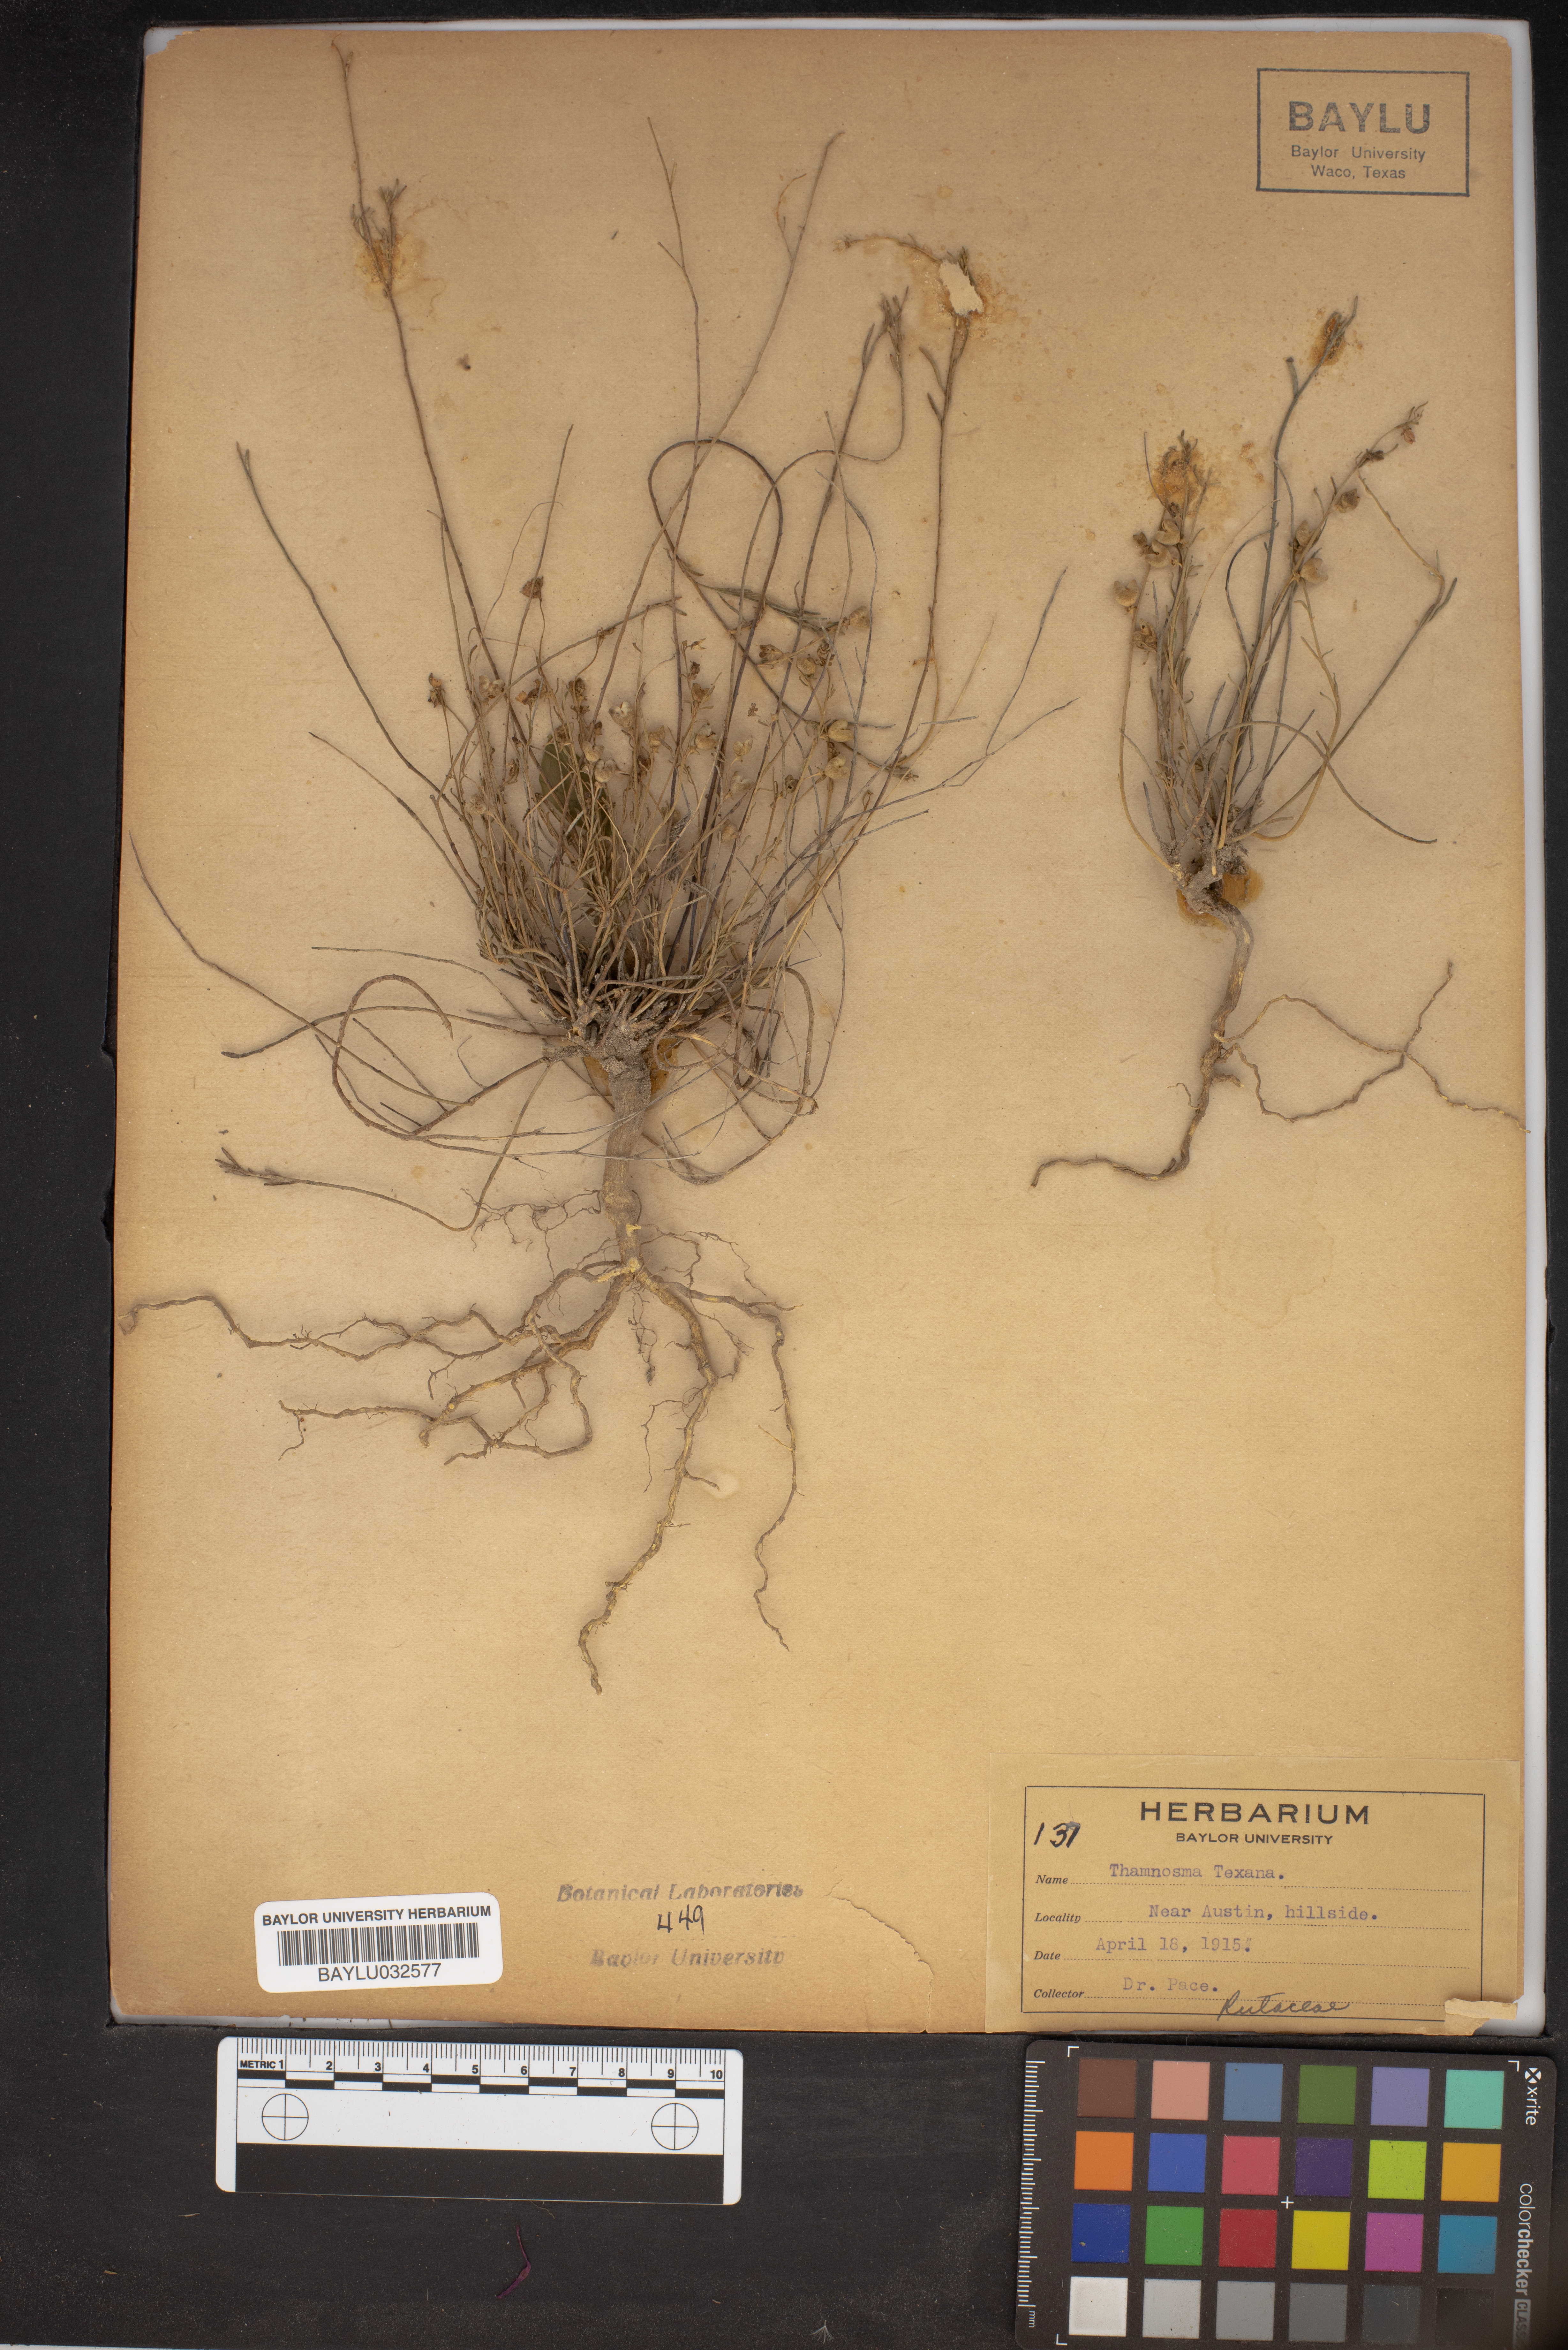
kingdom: Plantae
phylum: Tracheophyta
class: Magnoliopsida
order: Sapindales
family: Rutaceae
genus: Thamnosma
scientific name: Thamnosma texana
